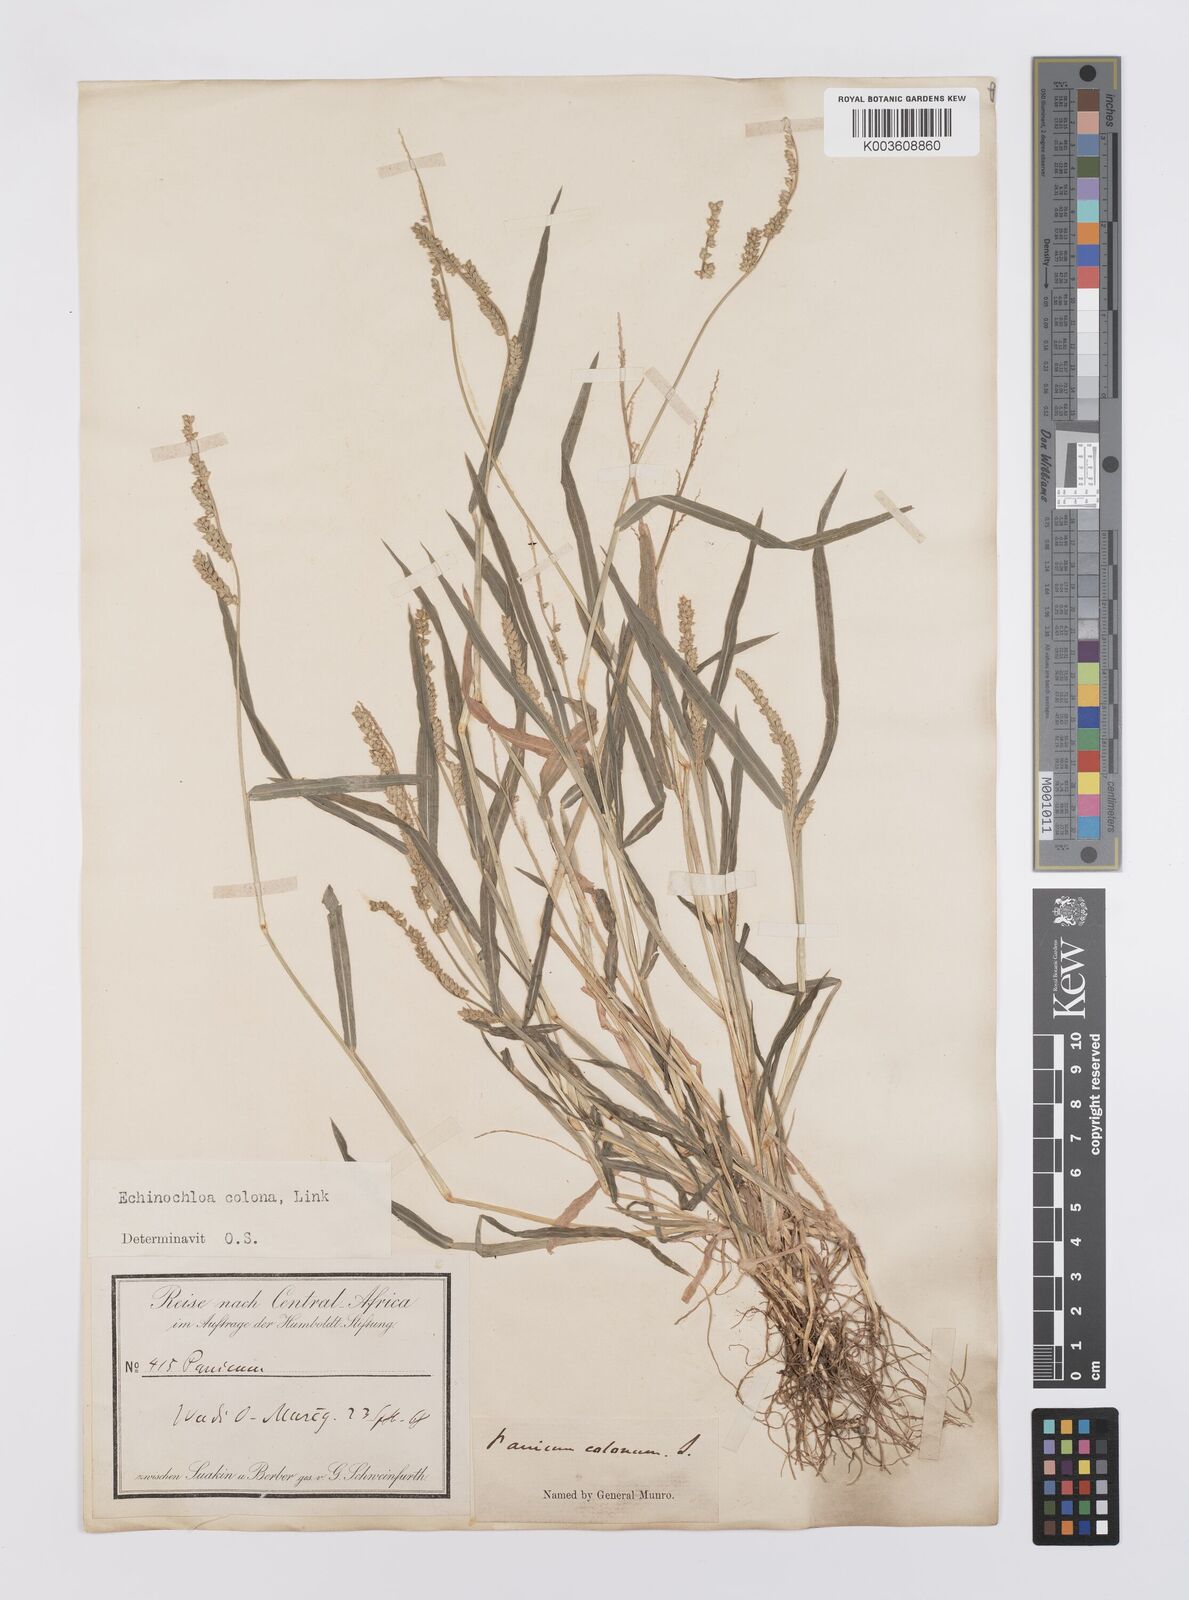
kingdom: Plantae
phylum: Tracheophyta
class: Liliopsida
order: Poales
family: Poaceae
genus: Echinochloa
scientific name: Echinochloa colonum
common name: Jungle rice
